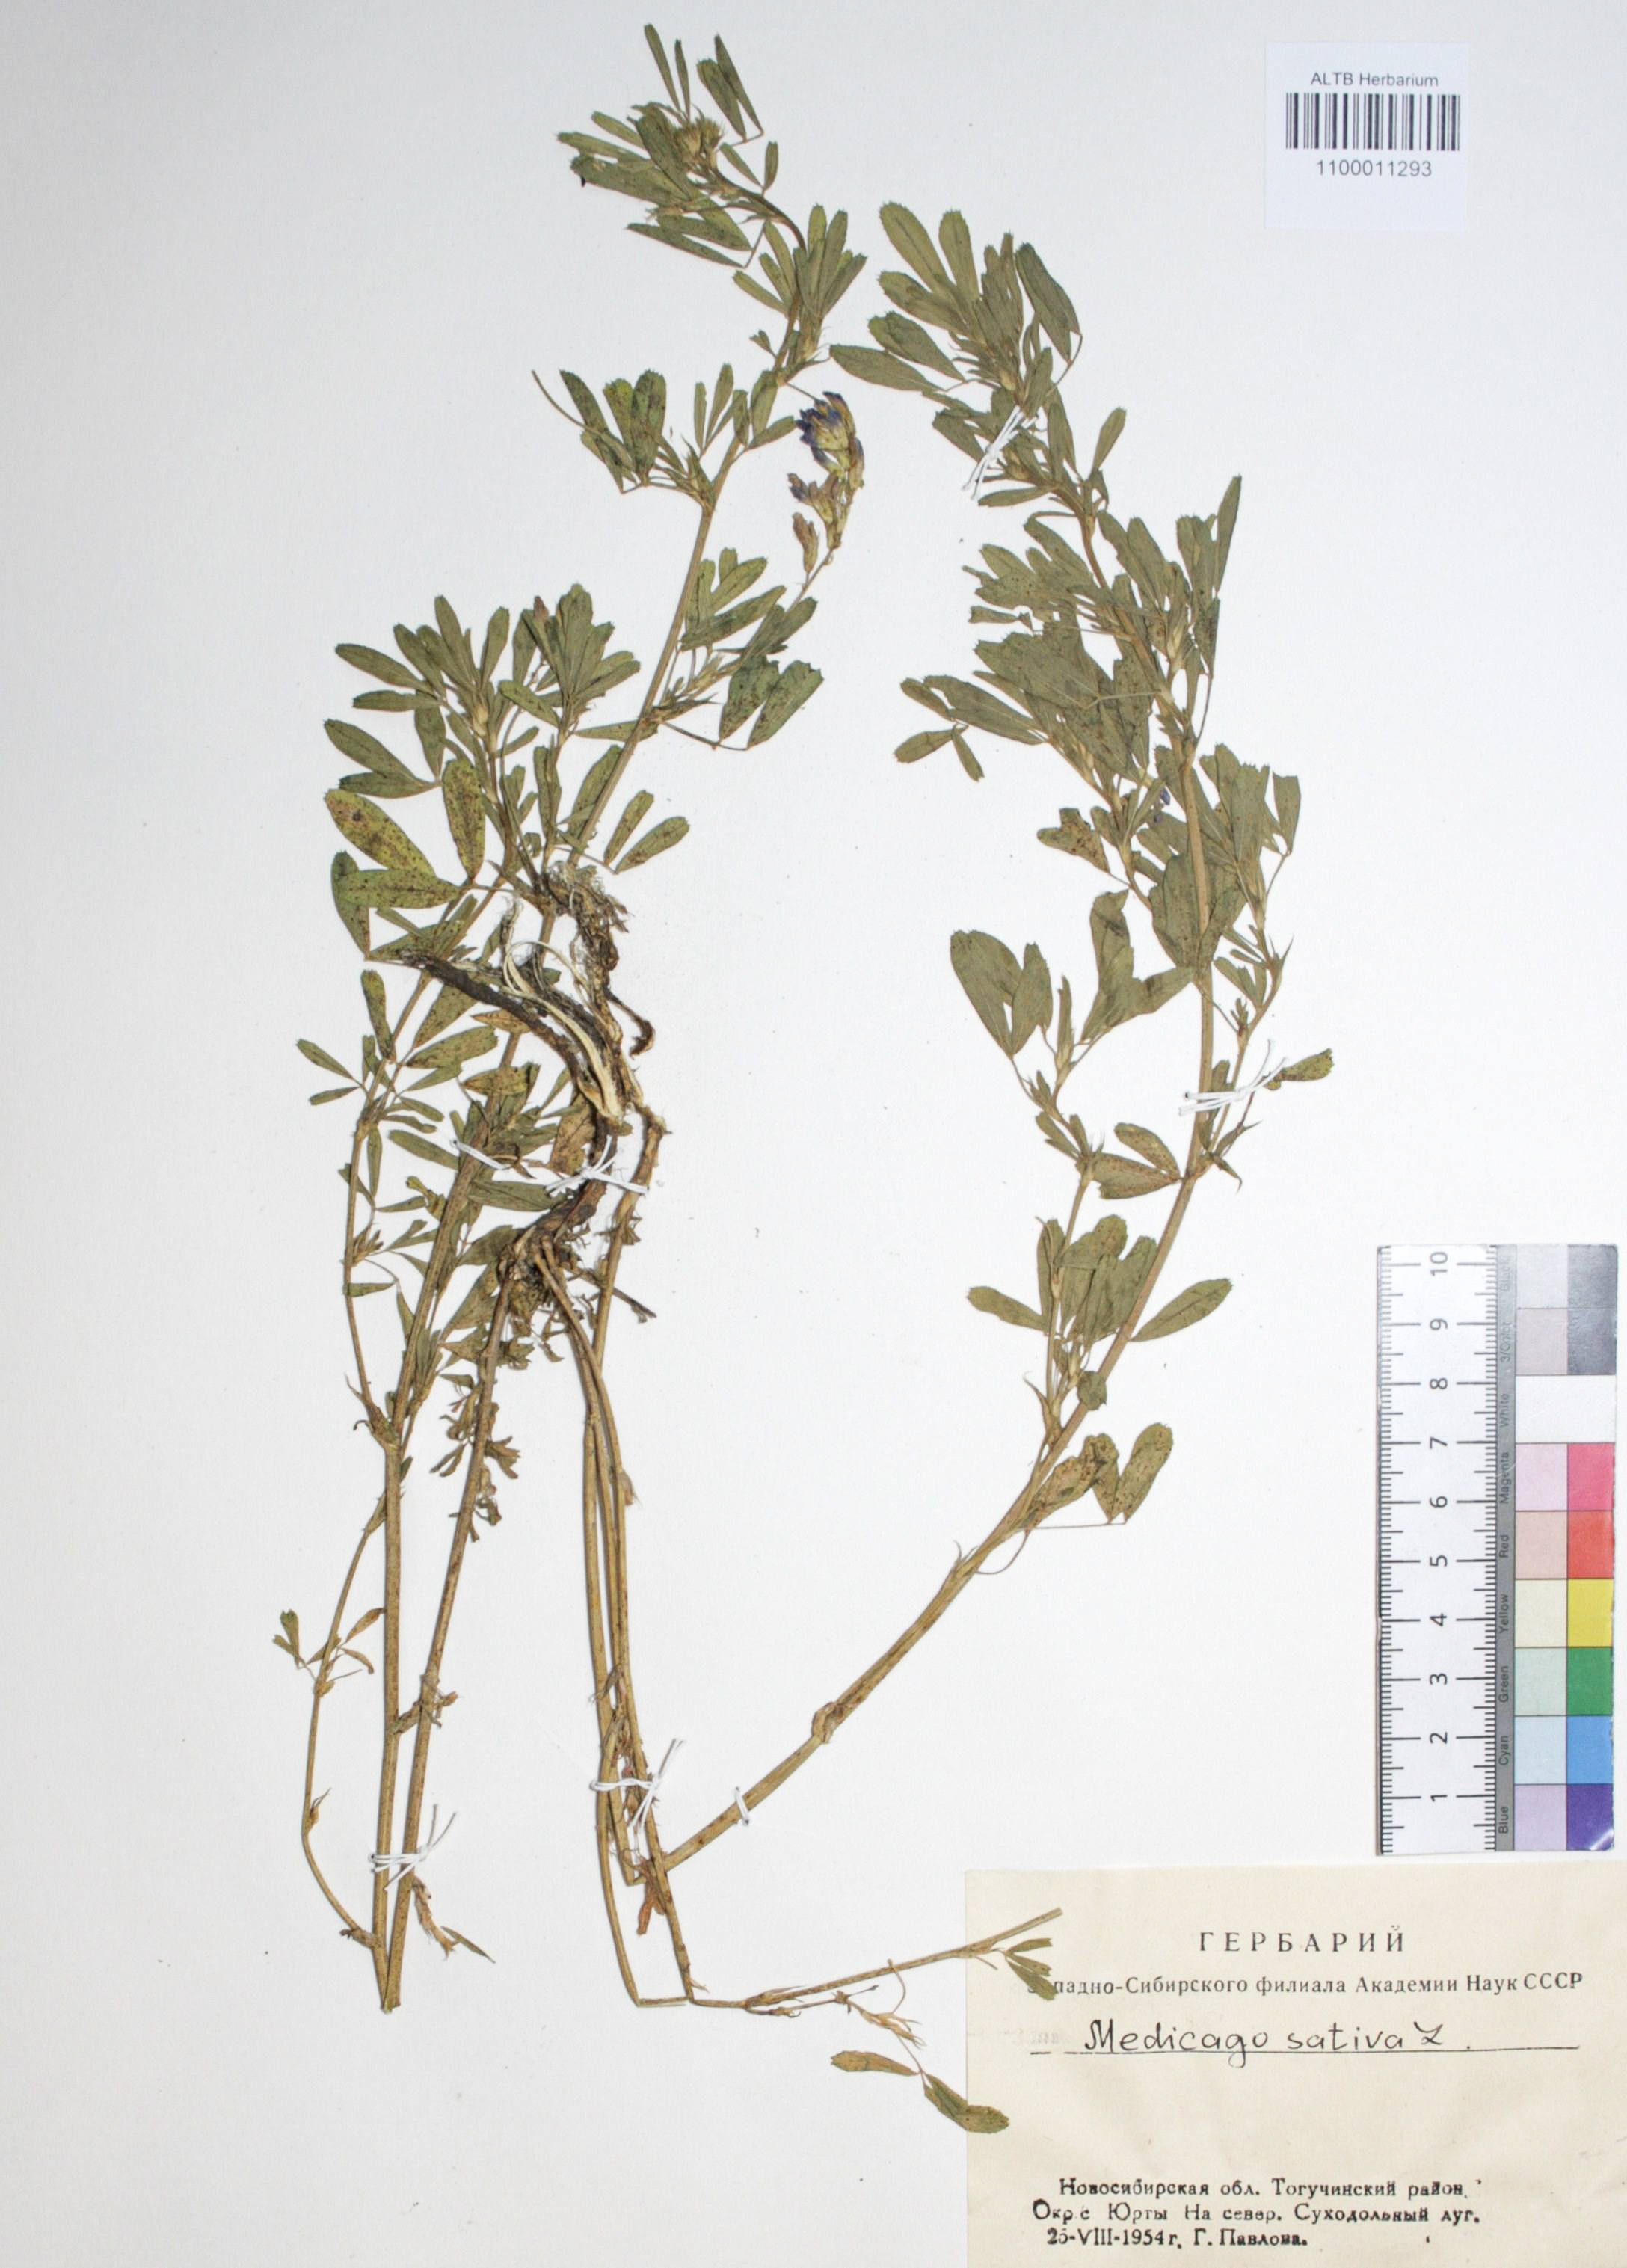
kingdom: Plantae
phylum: Tracheophyta
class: Magnoliopsida
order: Fabales
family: Fabaceae
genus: Medicago
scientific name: Medicago sativa
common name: Alfalfa
